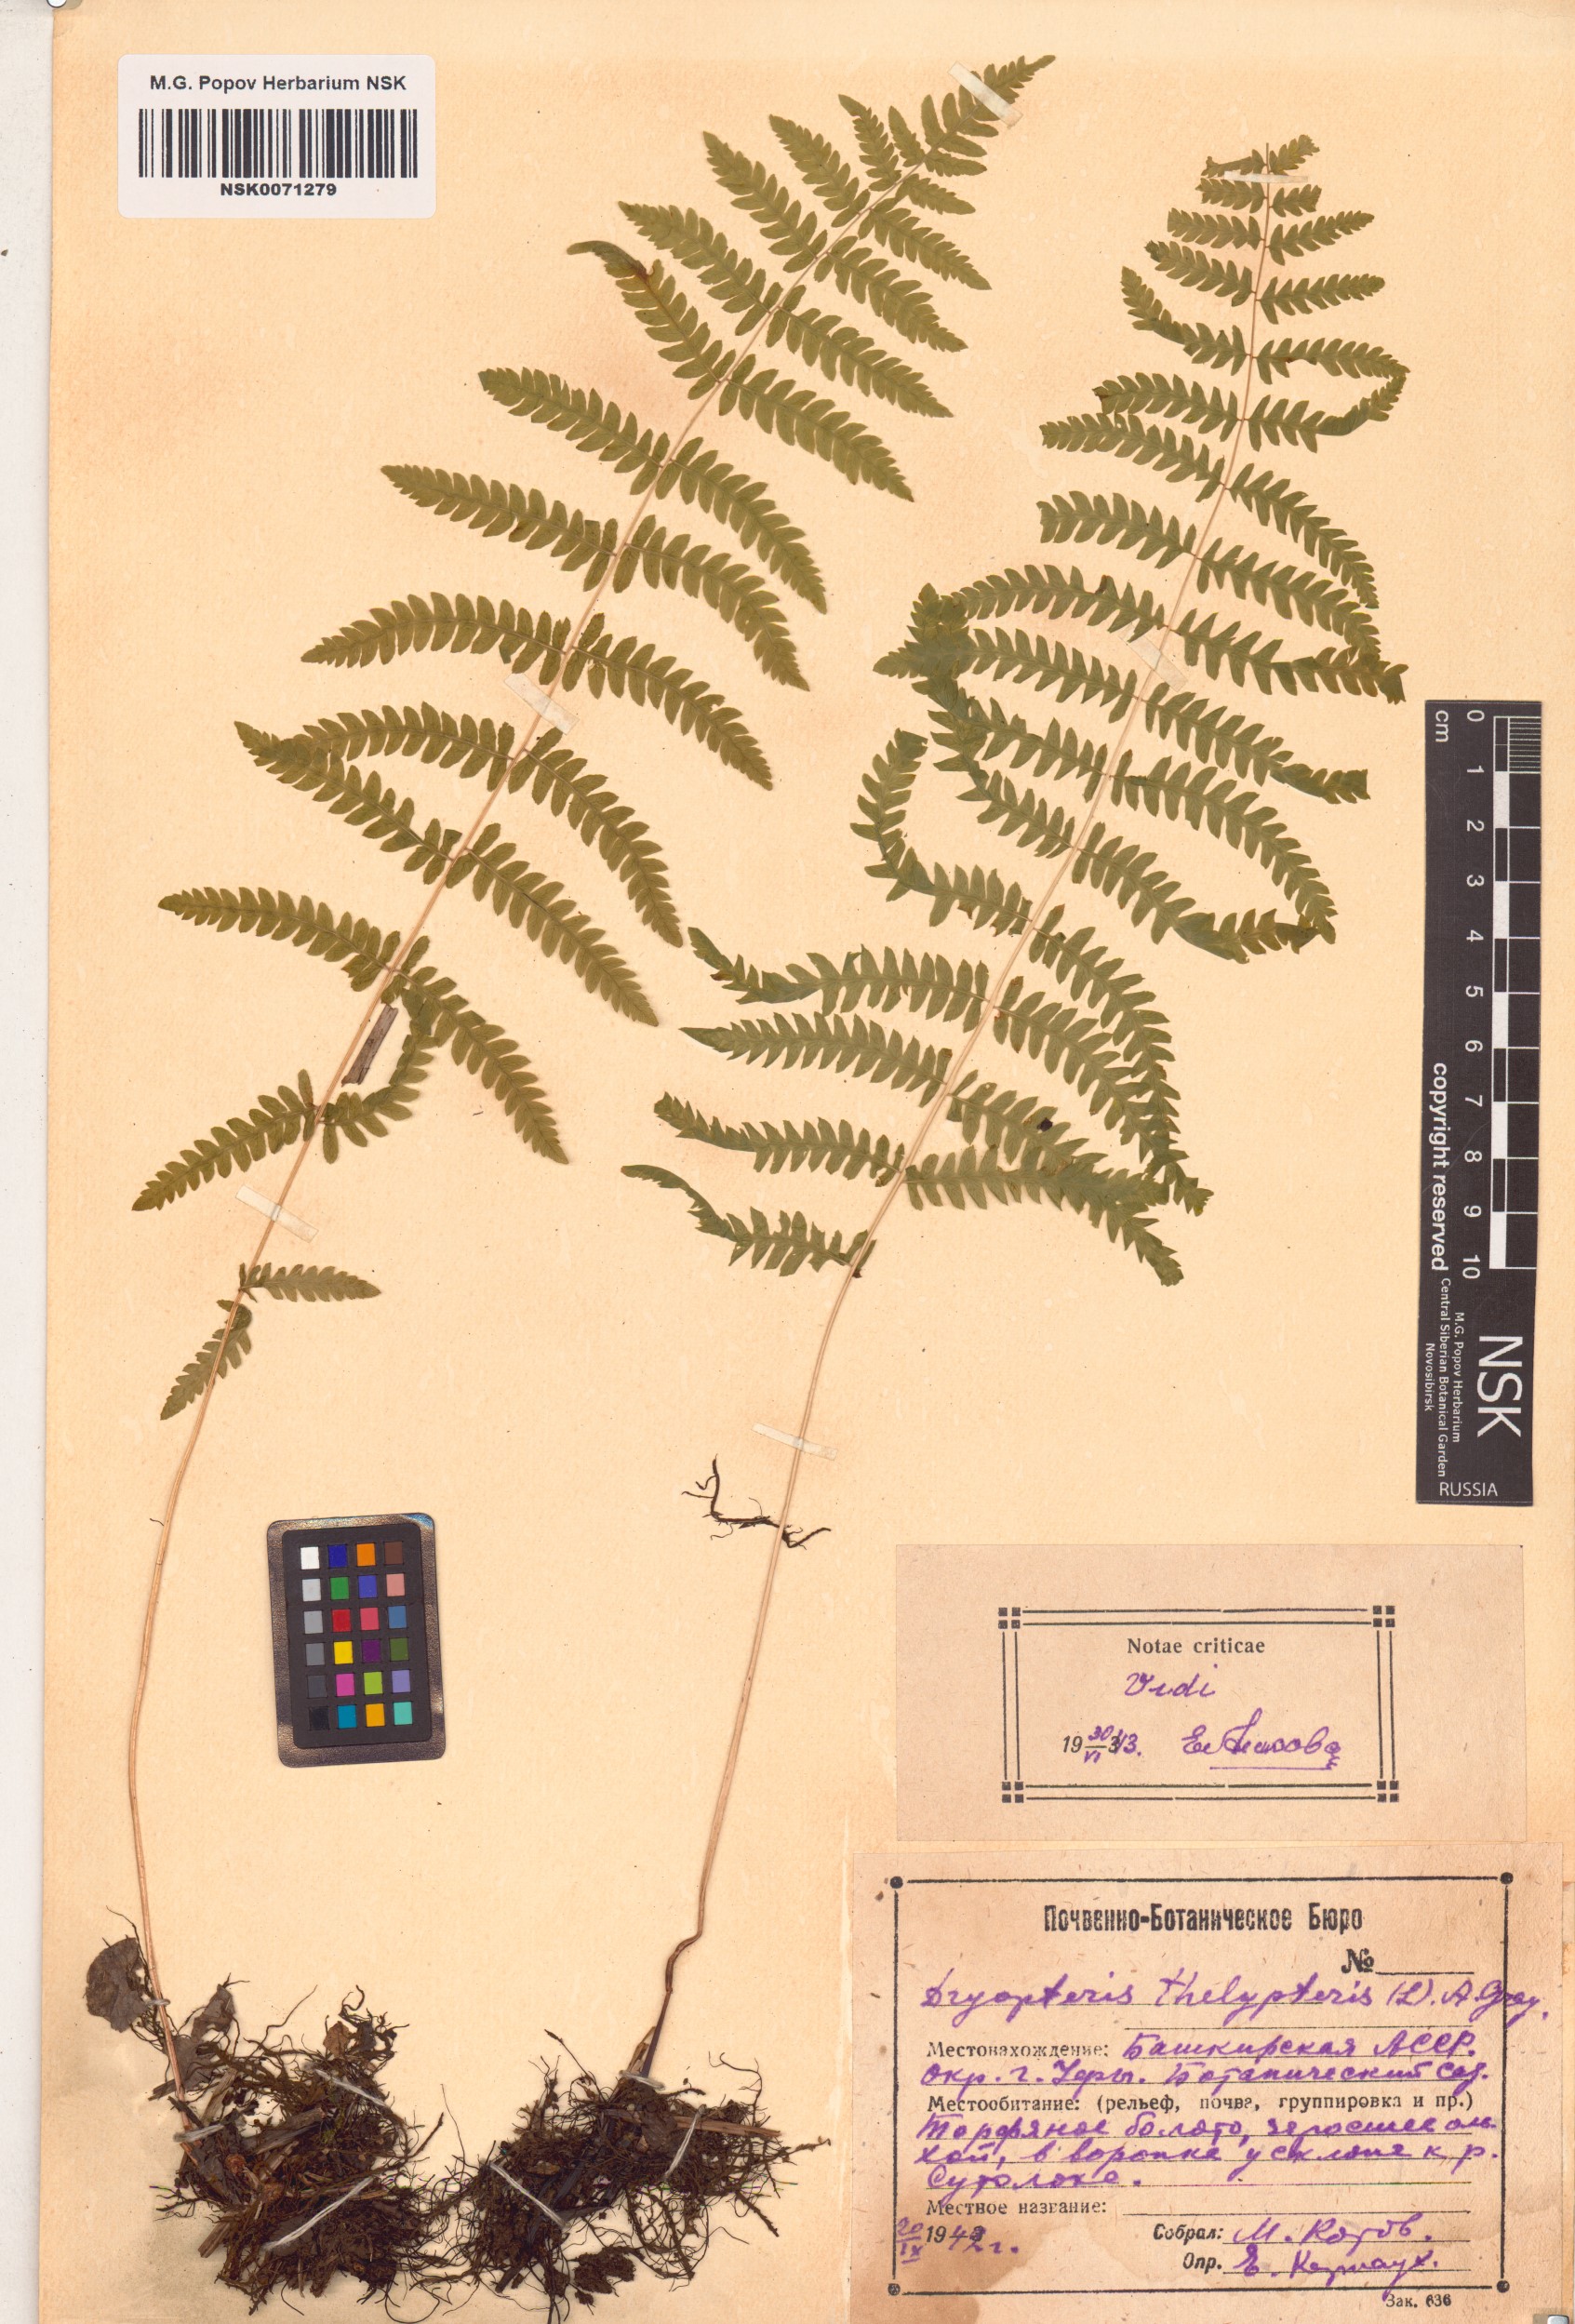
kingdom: Plantae
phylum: Tracheophyta
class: Polypodiopsida
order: Polypodiales
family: Thelypteridaceae
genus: Thelypteris
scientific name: Thelypteris palustris
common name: Marsh fern
